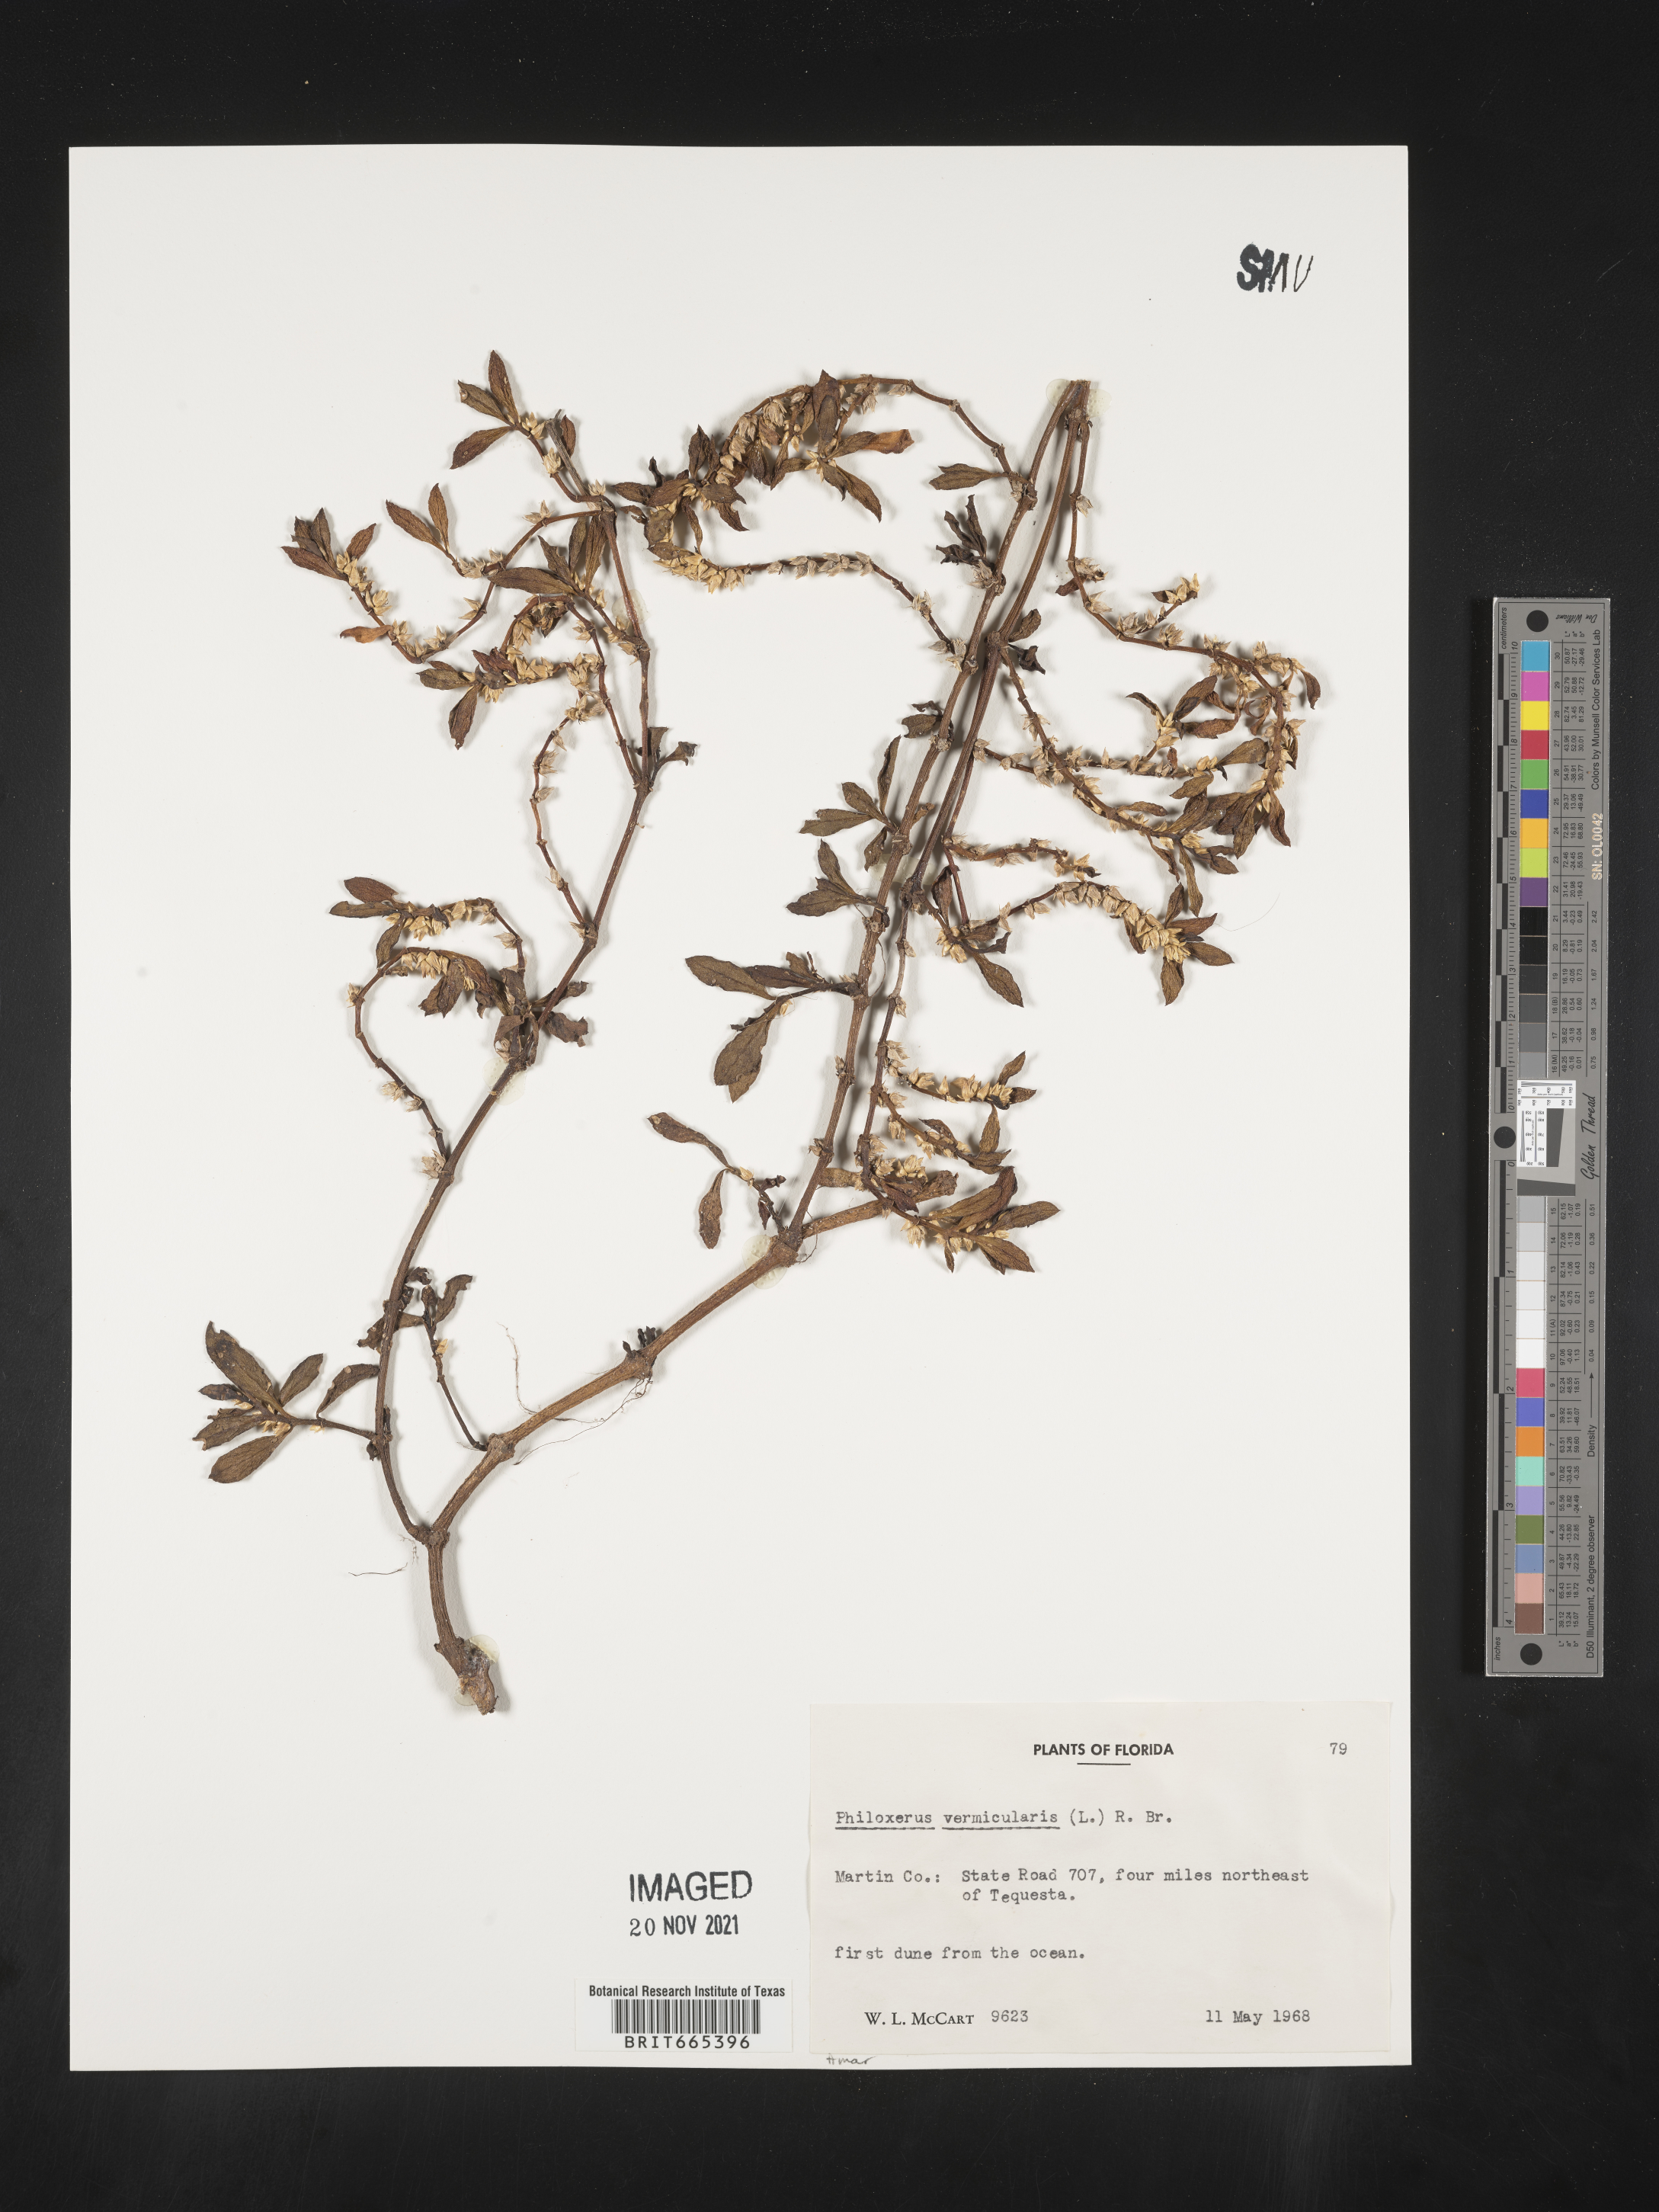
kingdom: Plantae
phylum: Tracheophyta
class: Magnoliopsida
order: Caryophyllales
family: Amaranthaceae
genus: Gomphrena
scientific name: Gomphrena
